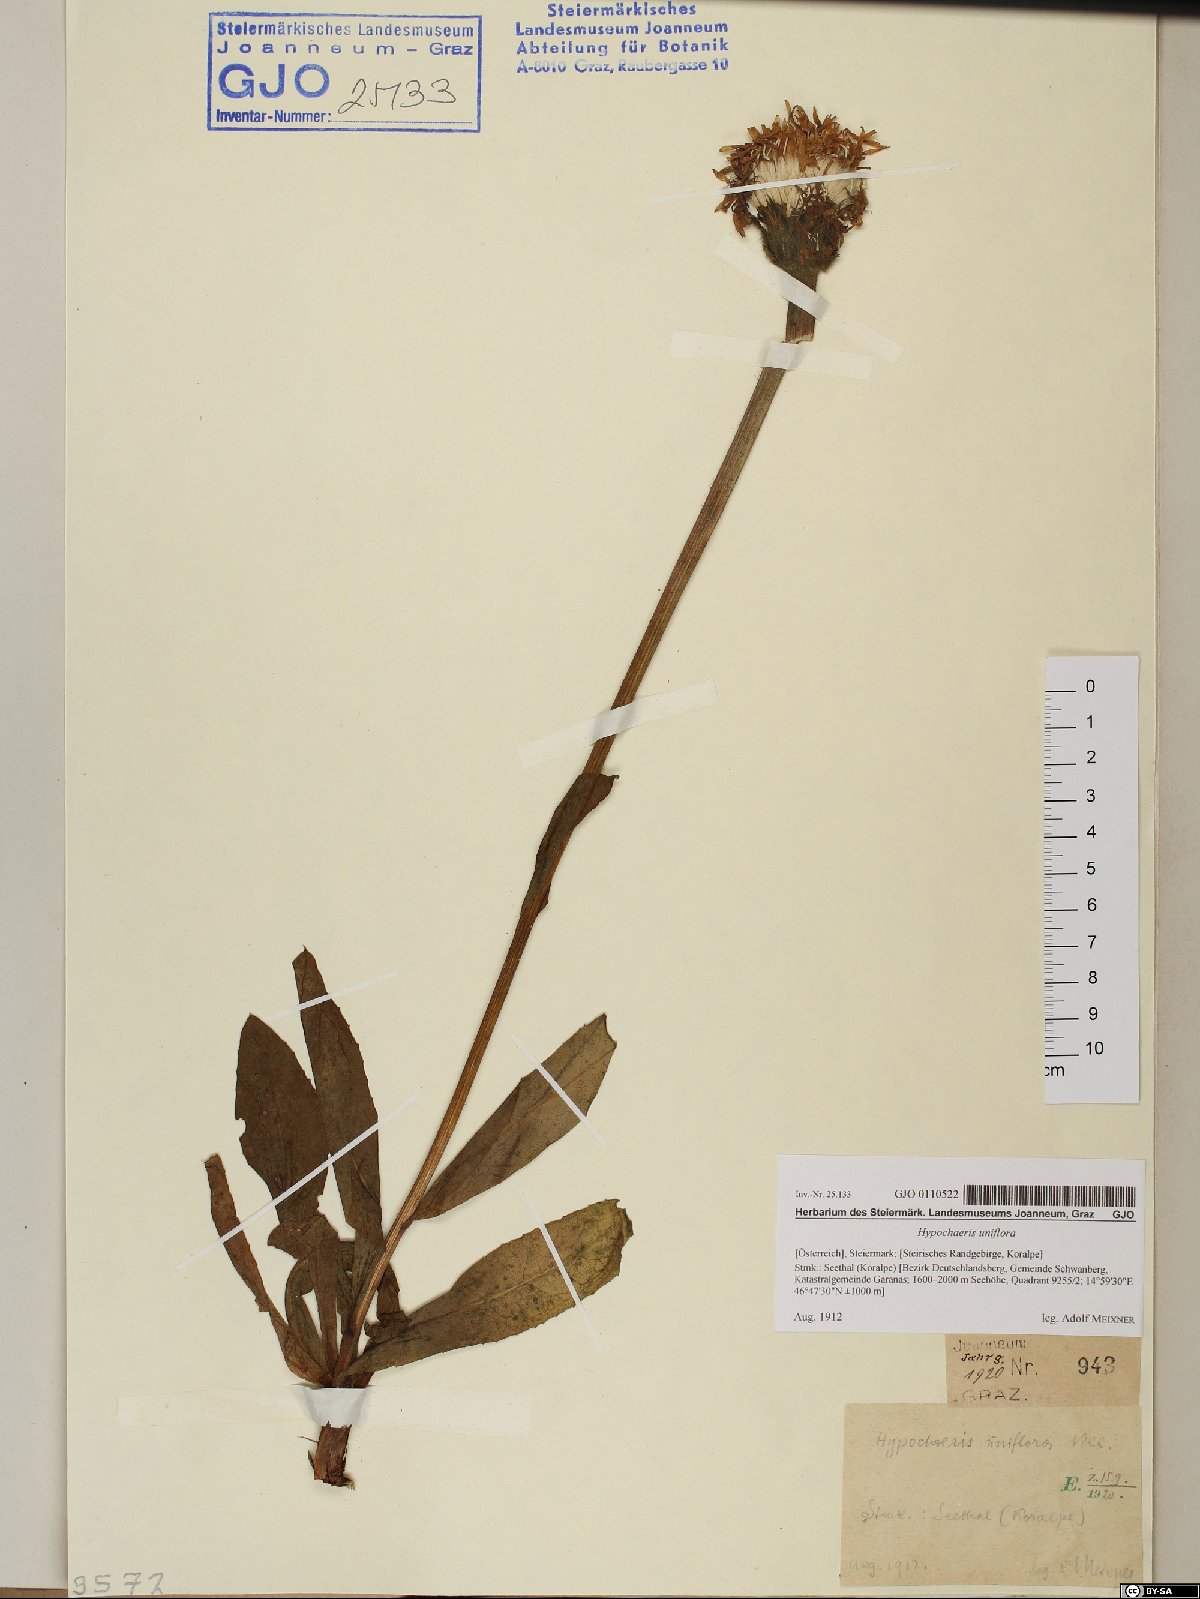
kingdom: Plantae
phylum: Tracheophyta
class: Magnoliopsida
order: Asterales
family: Asteraceae
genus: Trommsdorffia
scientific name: Trommsdorffia uniflora
